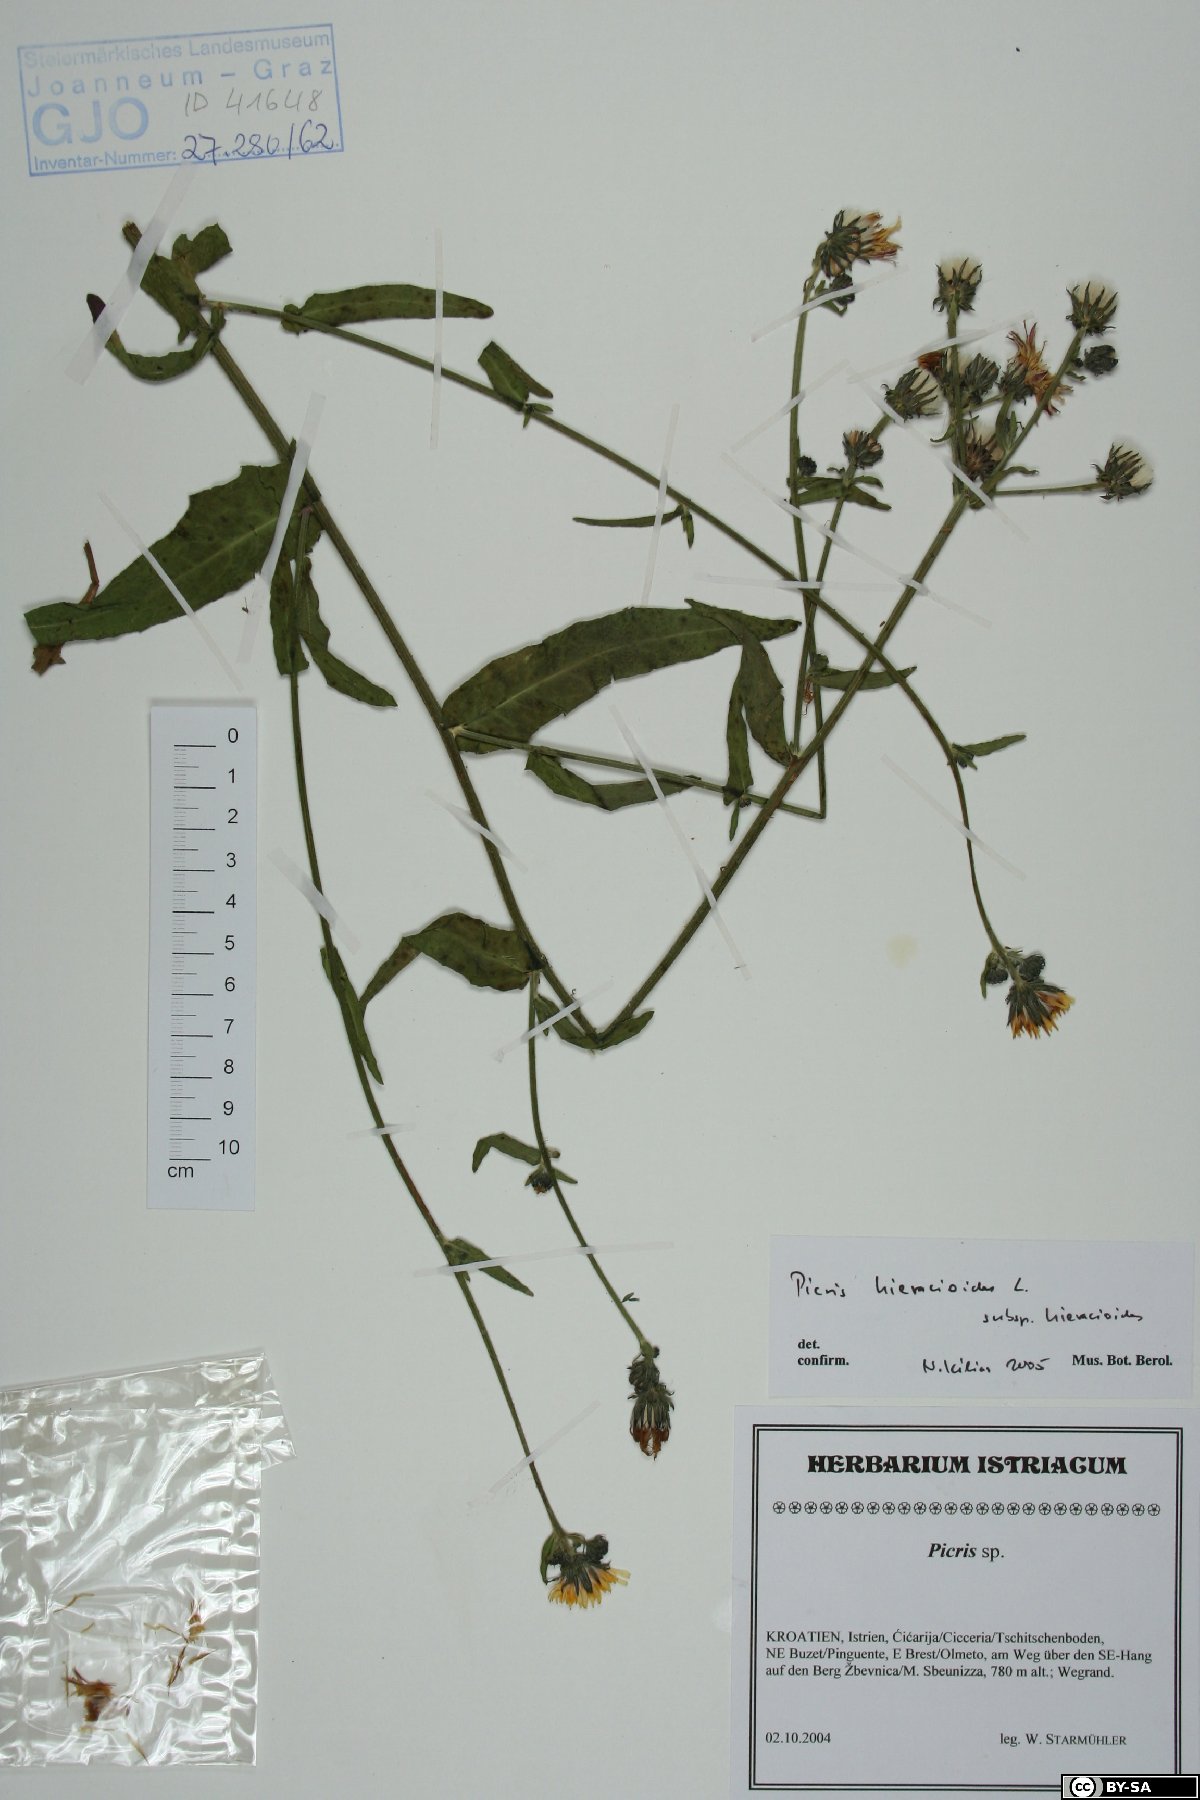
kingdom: Plantae
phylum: Tracheophyta
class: Magnoliopsida
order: Asterales
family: Asteraceae
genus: Picris
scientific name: Picris hieracioides
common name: Hawkweed oxtongue
